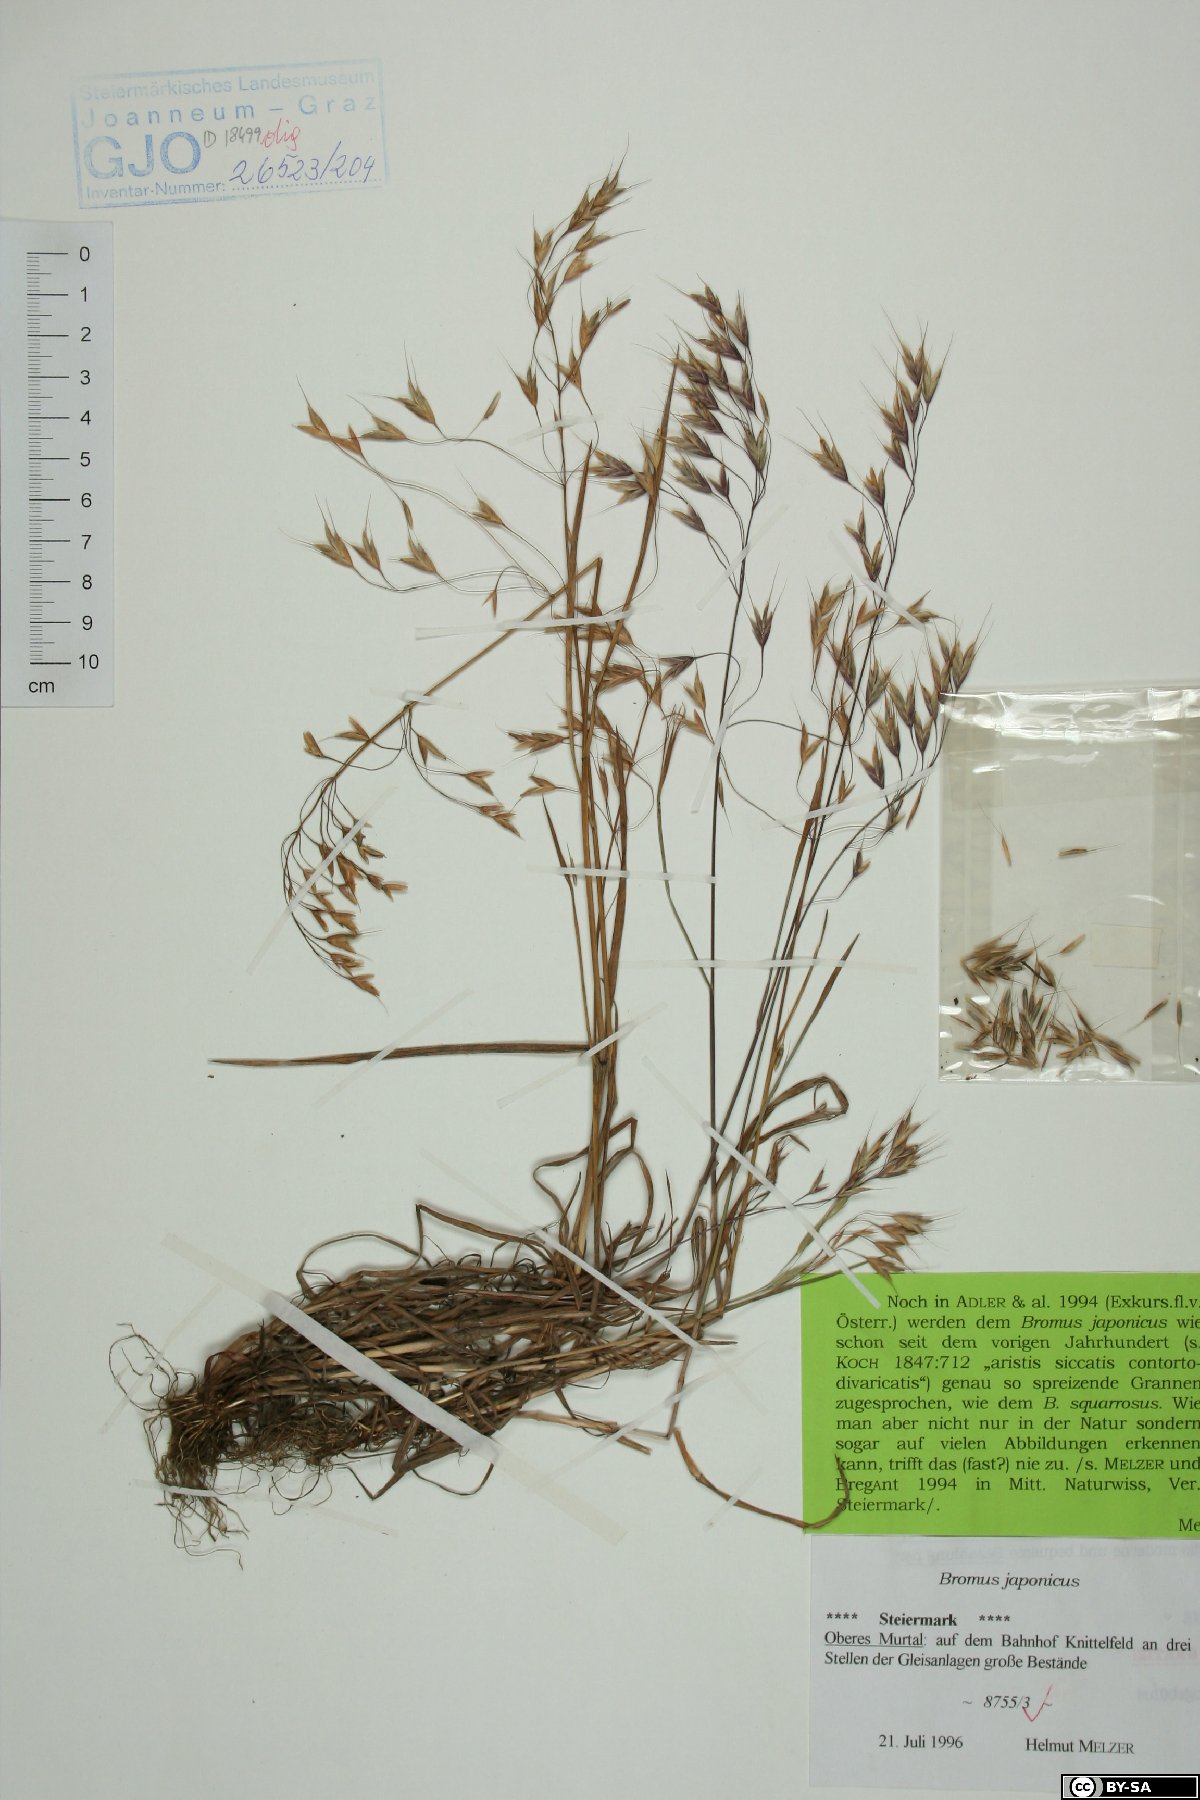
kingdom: Plantae
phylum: Tracheophyta
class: Liliopsida
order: Poales
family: Poaceae
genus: Bromus
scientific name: Bromus japonicus
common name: Japanese brome
